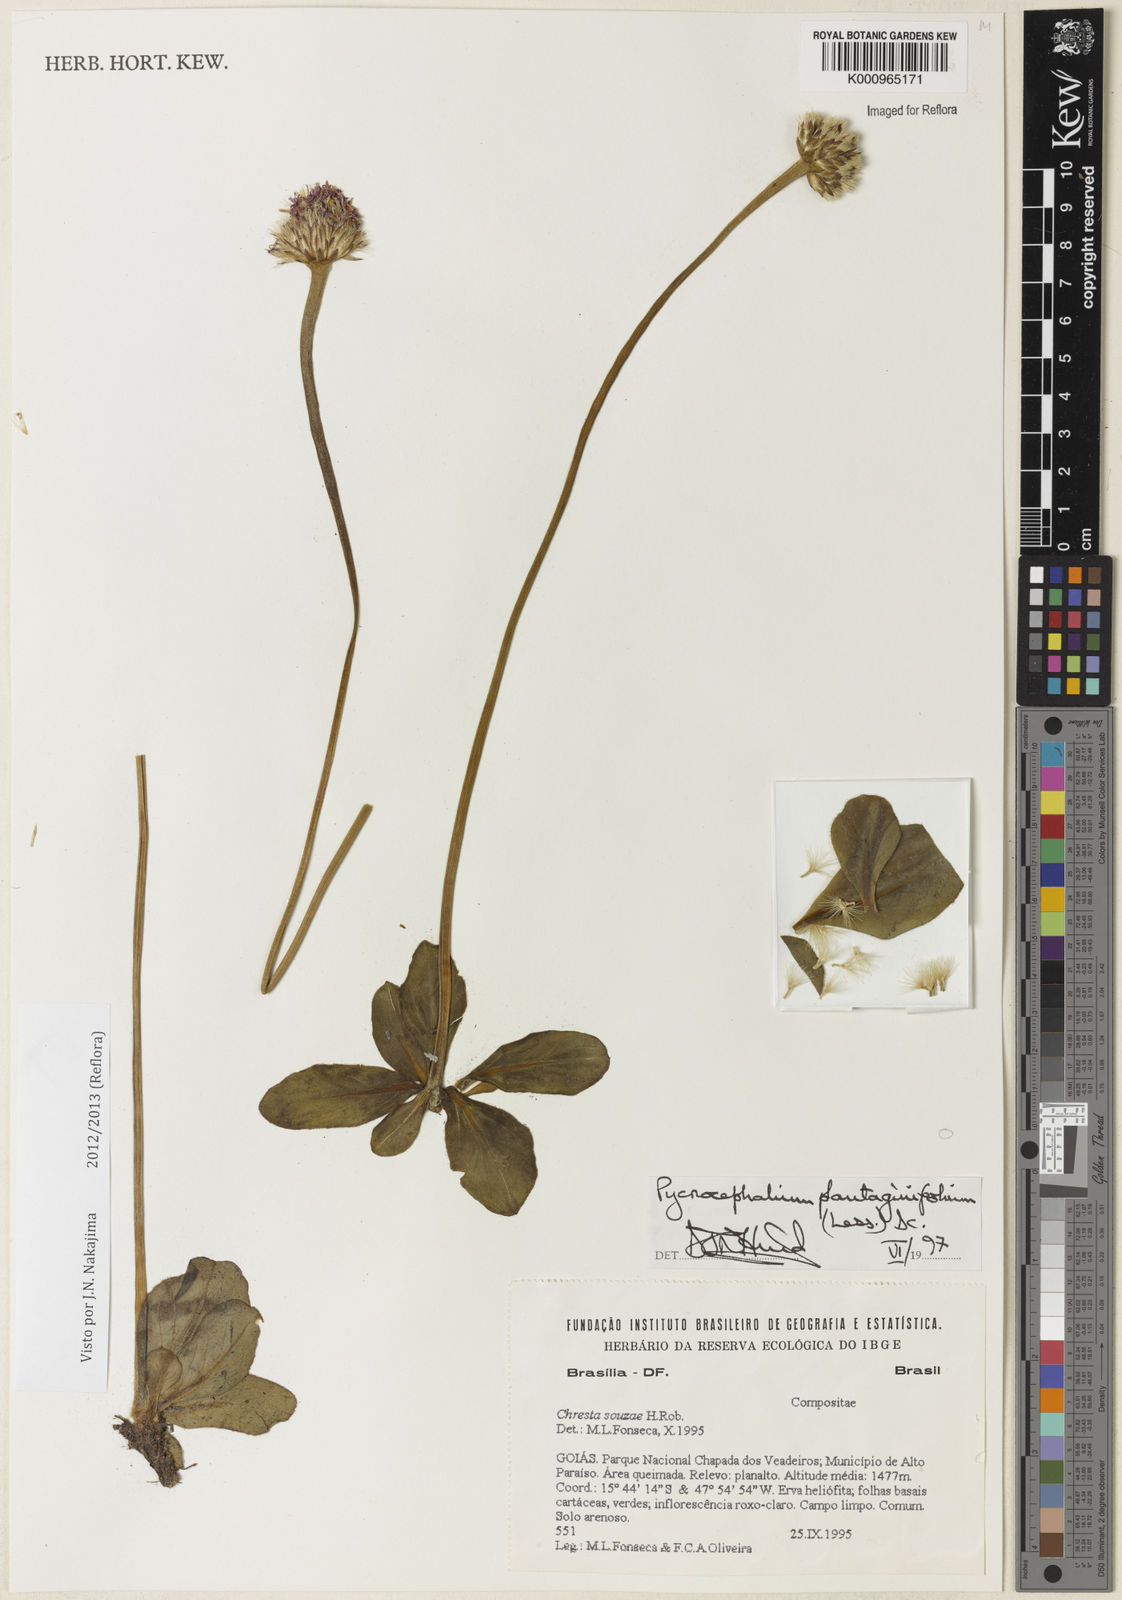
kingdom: Plantae
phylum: Tracheophyta
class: Magnoliopsida
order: Asterales
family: Asteraceae
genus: Chresta
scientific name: Chresta plantaginifolia
